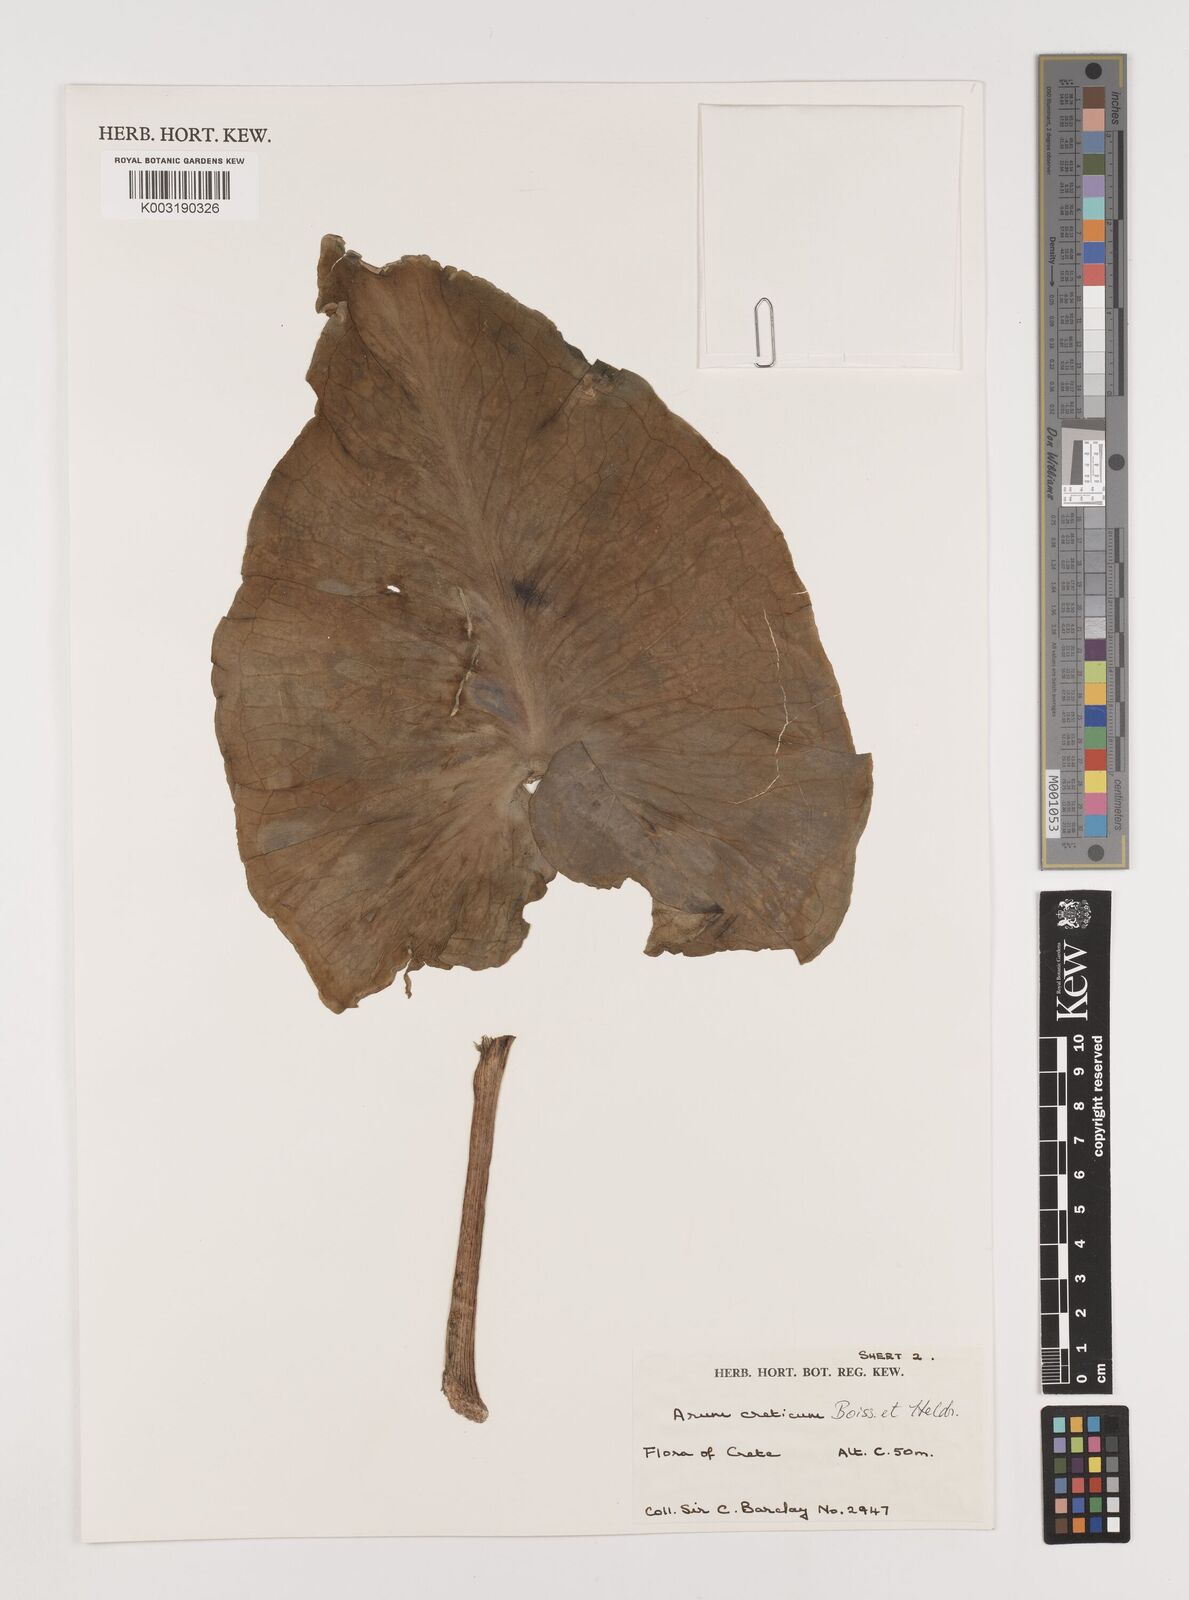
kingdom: Plantae
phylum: Tracheophyta
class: Liliopsida
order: Alismatales
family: Araceae
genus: Arum
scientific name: Arum creticum
